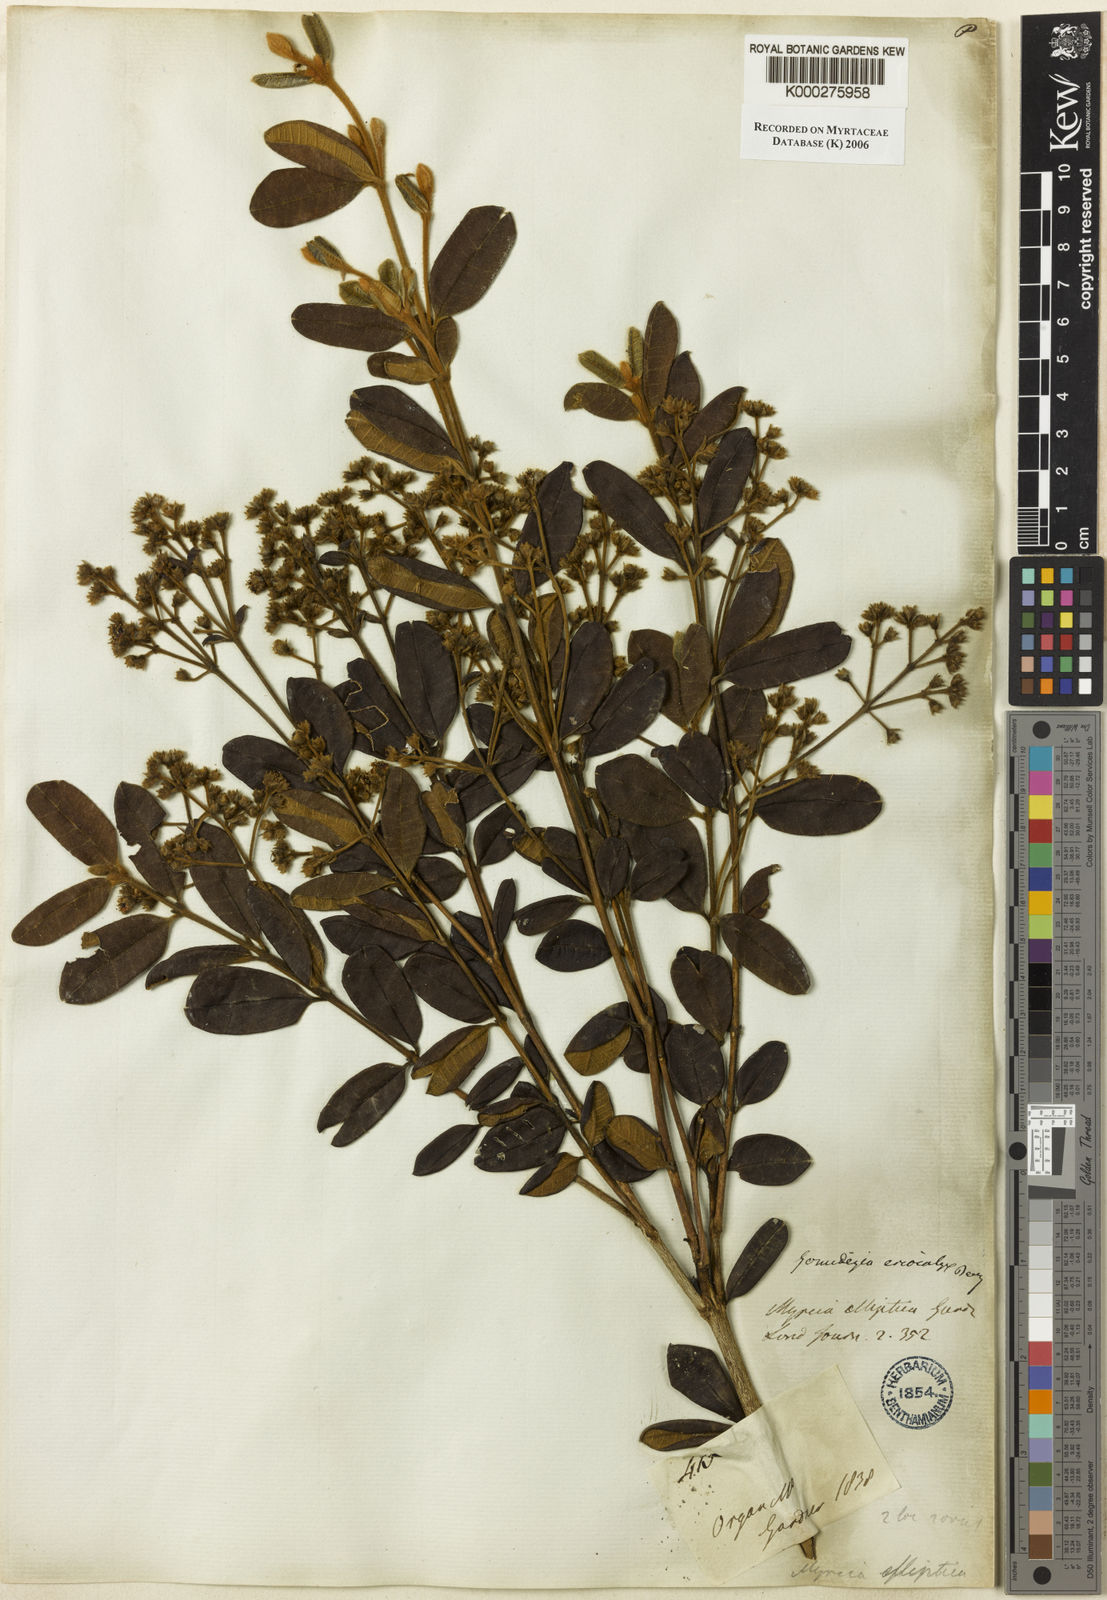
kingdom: Plantae
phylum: Tracheophyta
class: Magnoliopsida
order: Myrtales
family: Myrtaceae
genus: Myrcia
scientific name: Myrcia eriocalyx
